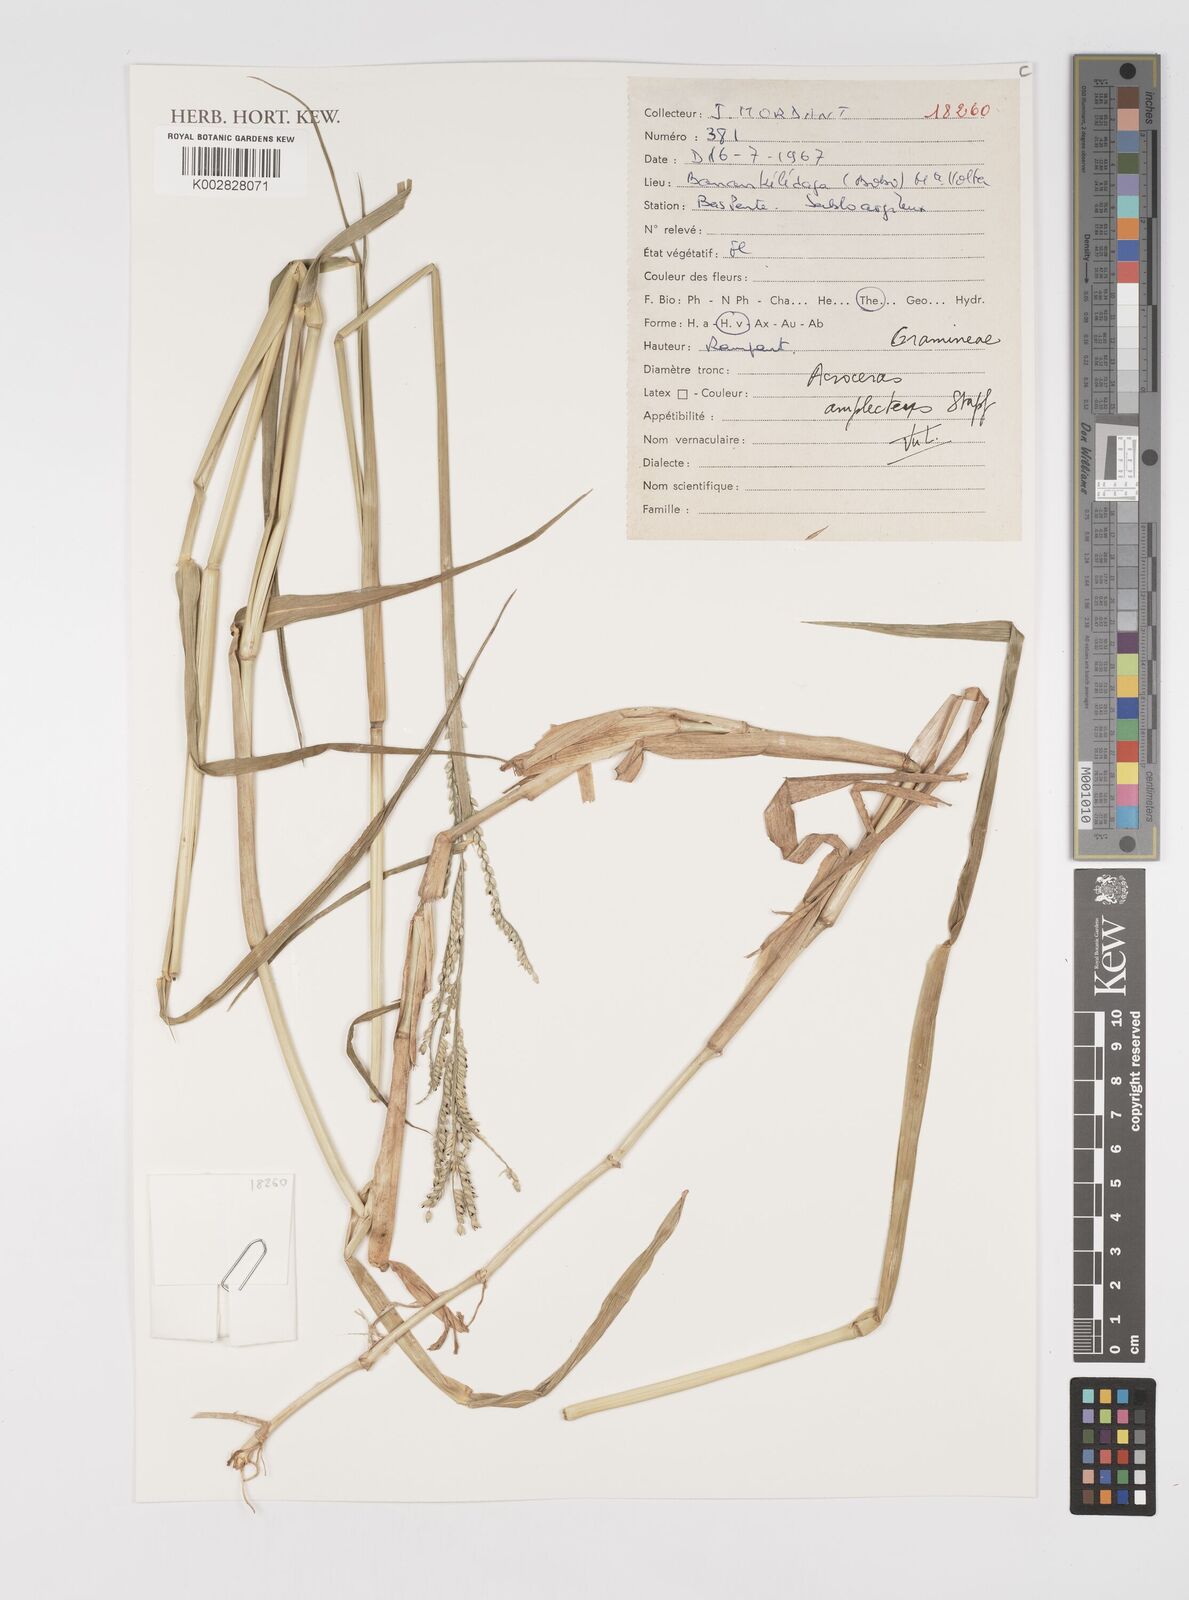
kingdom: Plantae
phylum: Tracheophyta
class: Liliopsida
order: Poales
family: Poaceae
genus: Acroceras
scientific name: Acroceras amplectens
